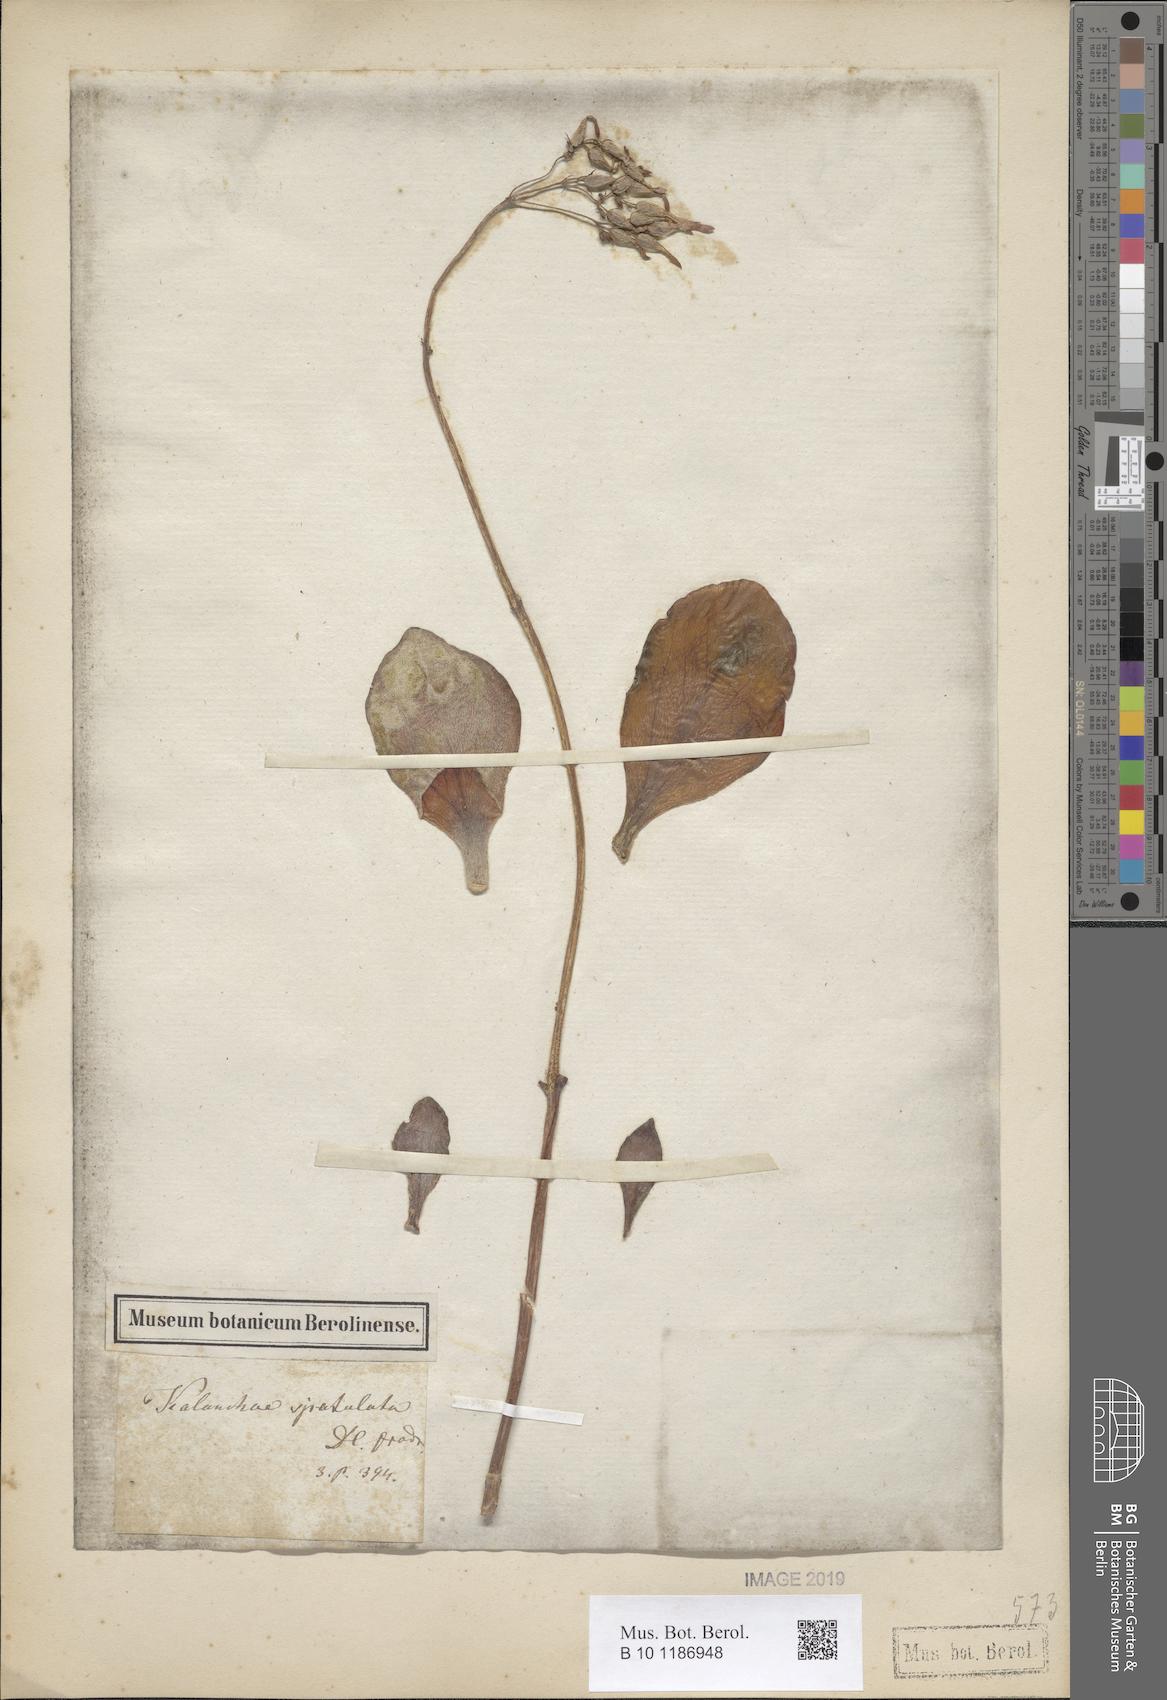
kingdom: Plantae
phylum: Tracheophyta
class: Magnoliopsida
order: Saxifragales
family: Crassulaceae
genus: Kalanchoe
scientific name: Kalanchoe integra
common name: Neverdie
